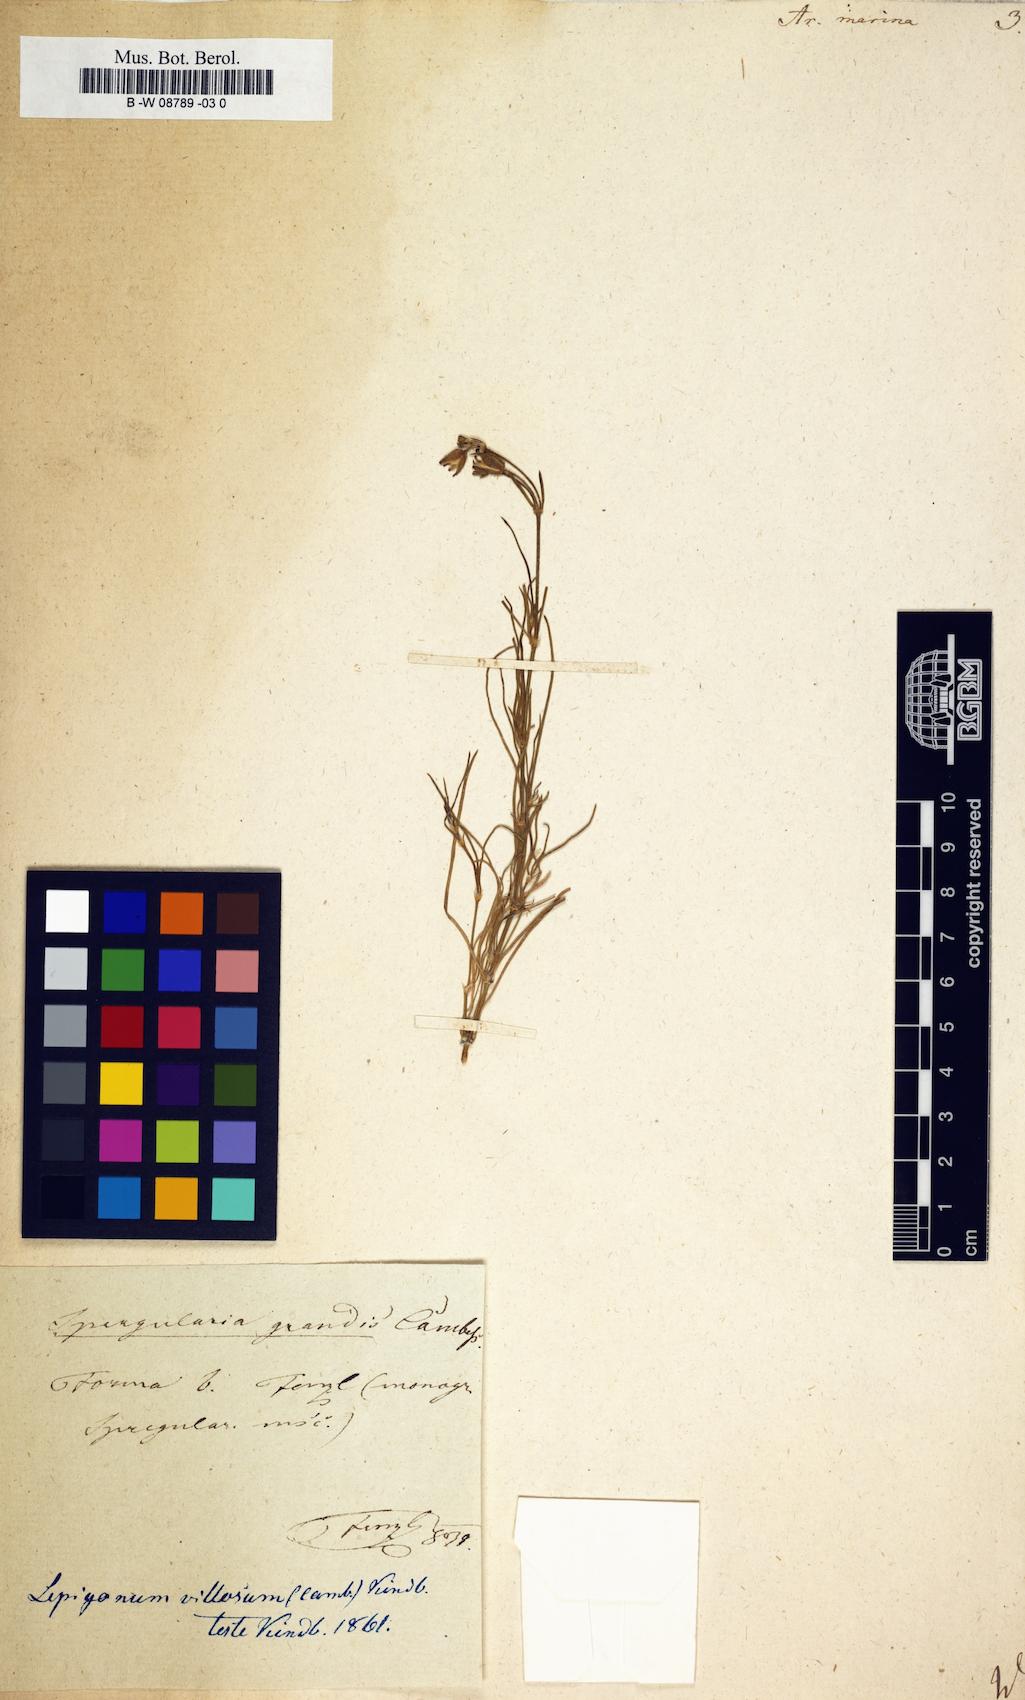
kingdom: Plantae
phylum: Tracheophyta
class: Magnoliopsida
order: Caryophyllales
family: Caryophyllaceae
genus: Arenaria
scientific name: Arenaria marina
